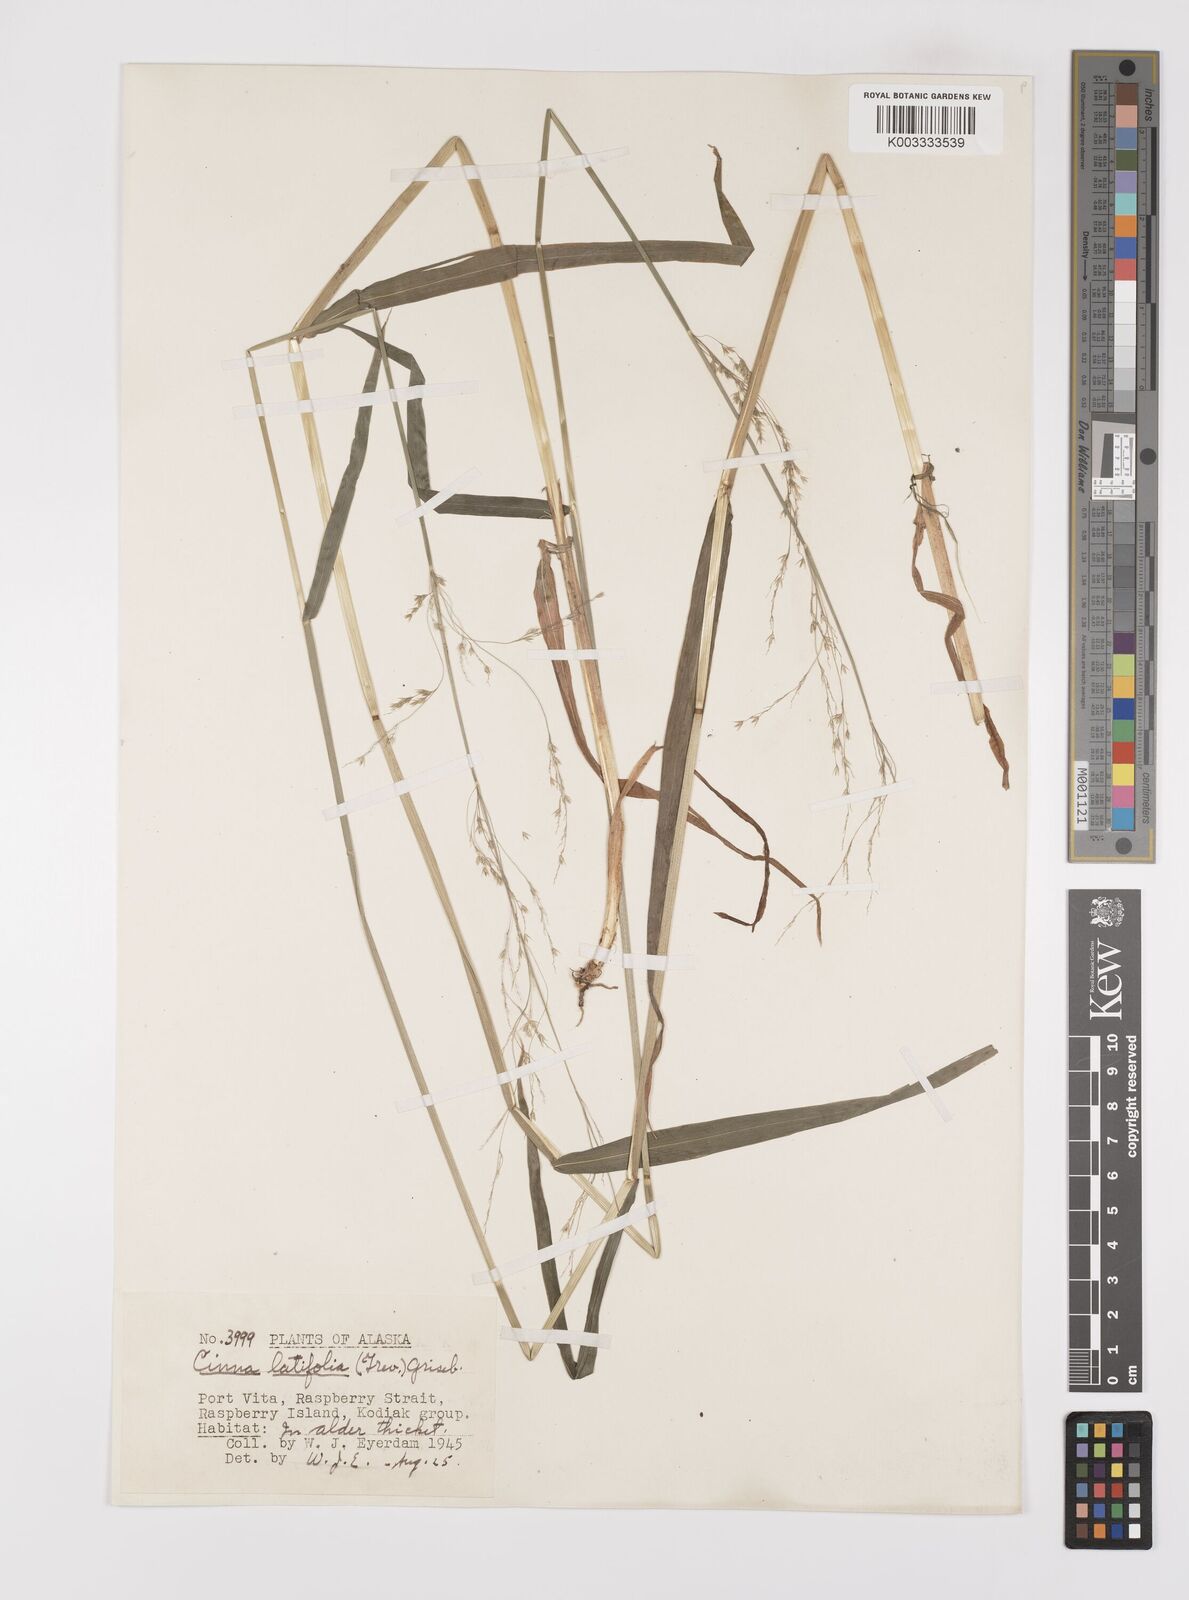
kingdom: Plantae
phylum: Tracheophyta
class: Liliopsida
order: Poales
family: Poaceae
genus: Cinna
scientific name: Cinna latifolia
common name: Drooping woodreed
